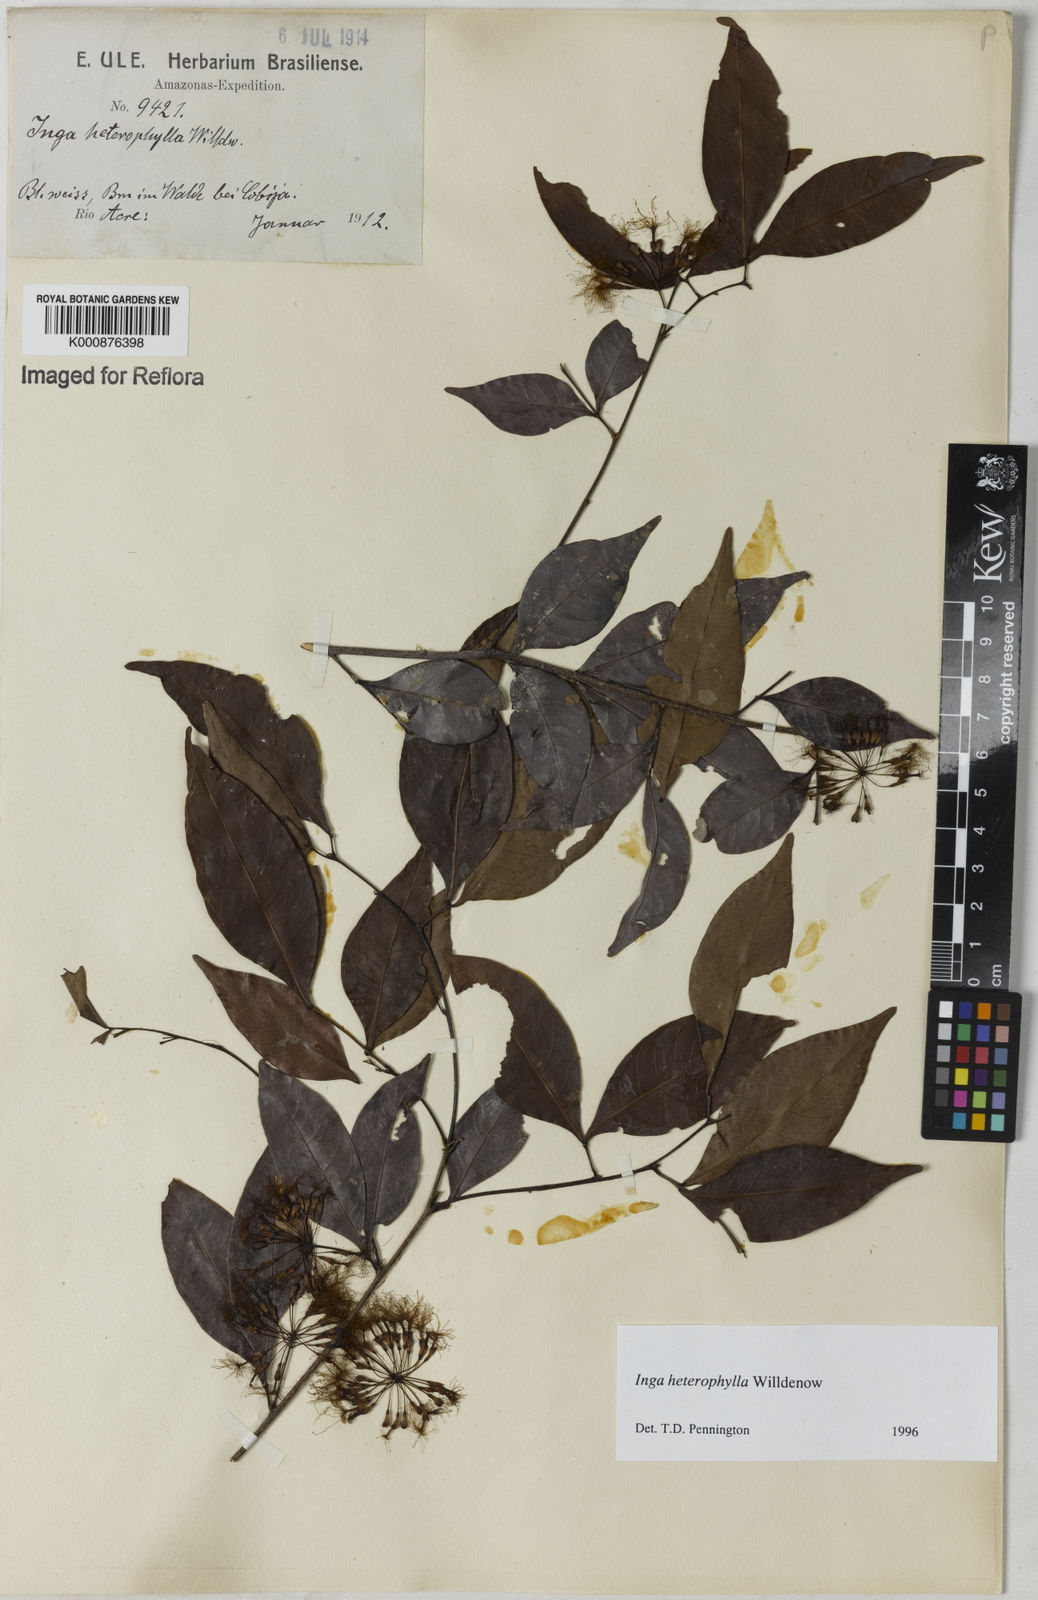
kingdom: Plantae
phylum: Tracheophyta
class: Magnoliopsida
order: Fabales
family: Fabaceae
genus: Inga
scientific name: Inga heterophylla
